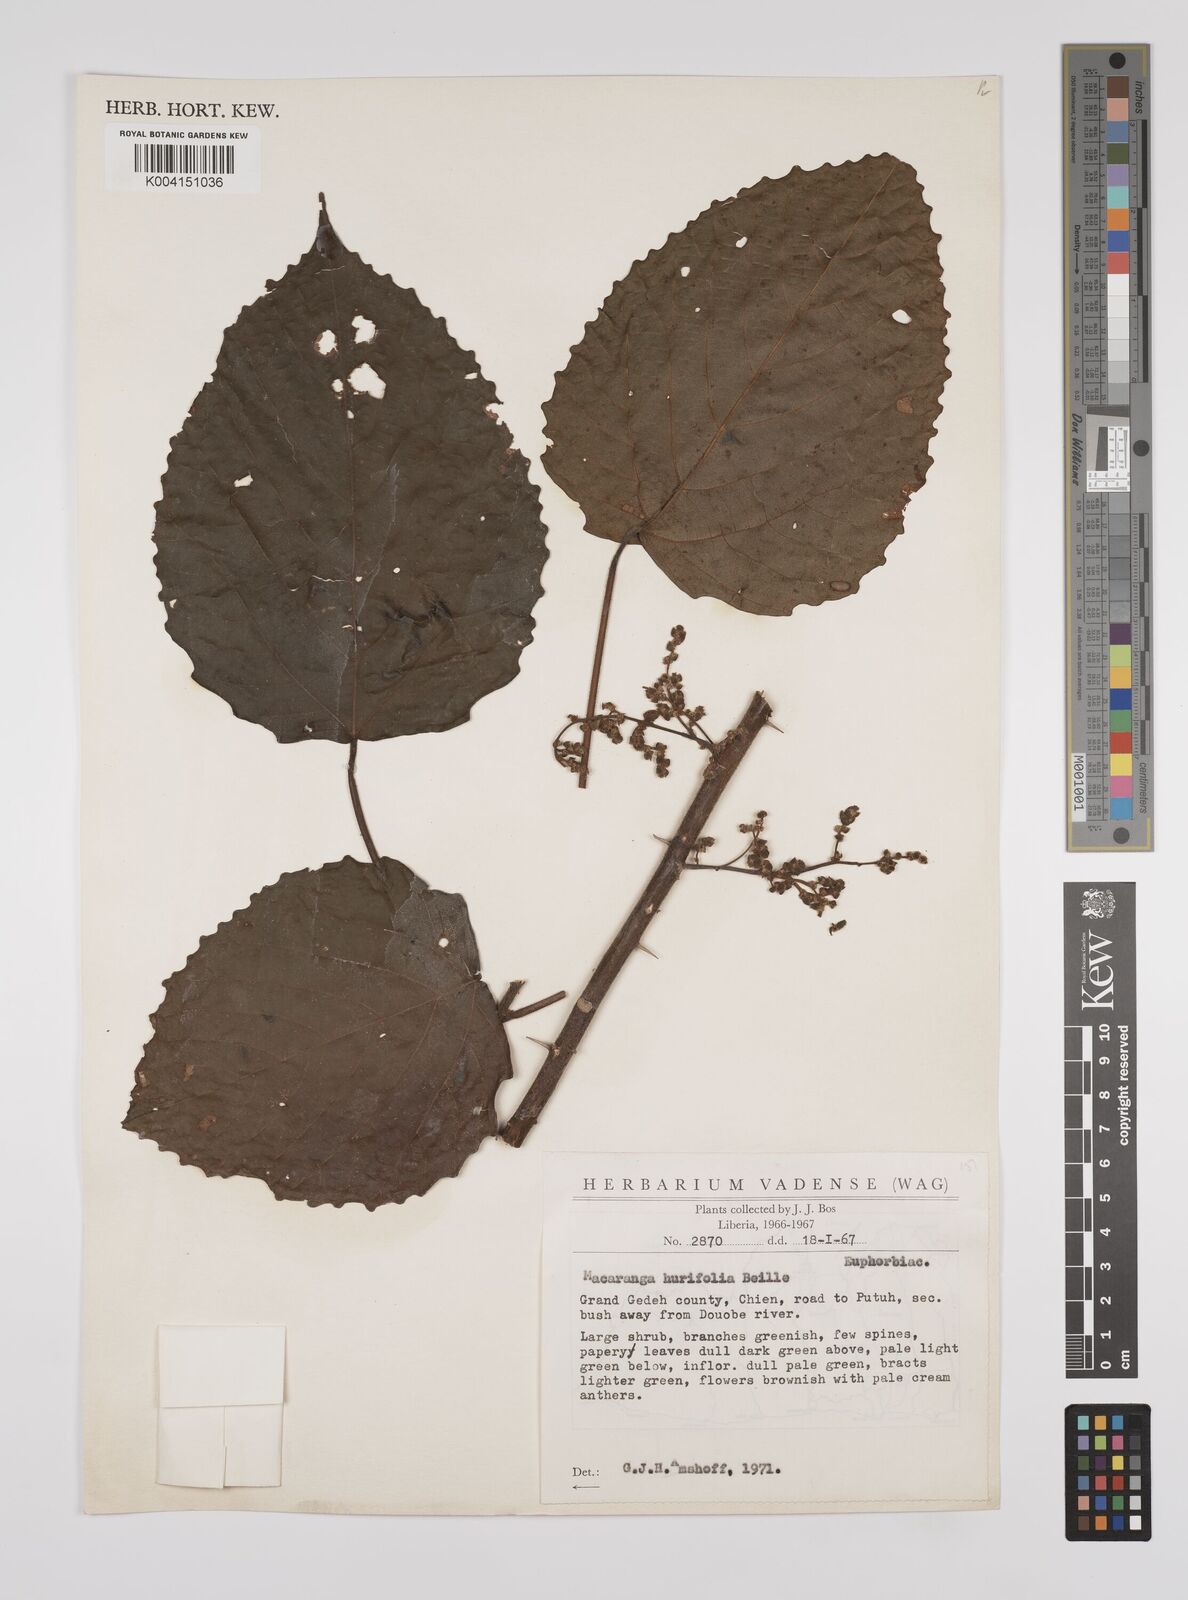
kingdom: Plantae
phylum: Tracheophyta
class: Magnoliopsida
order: Malpighiales
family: Euphorbiaceae
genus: Macaranga
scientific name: Macaranga hurifolia
